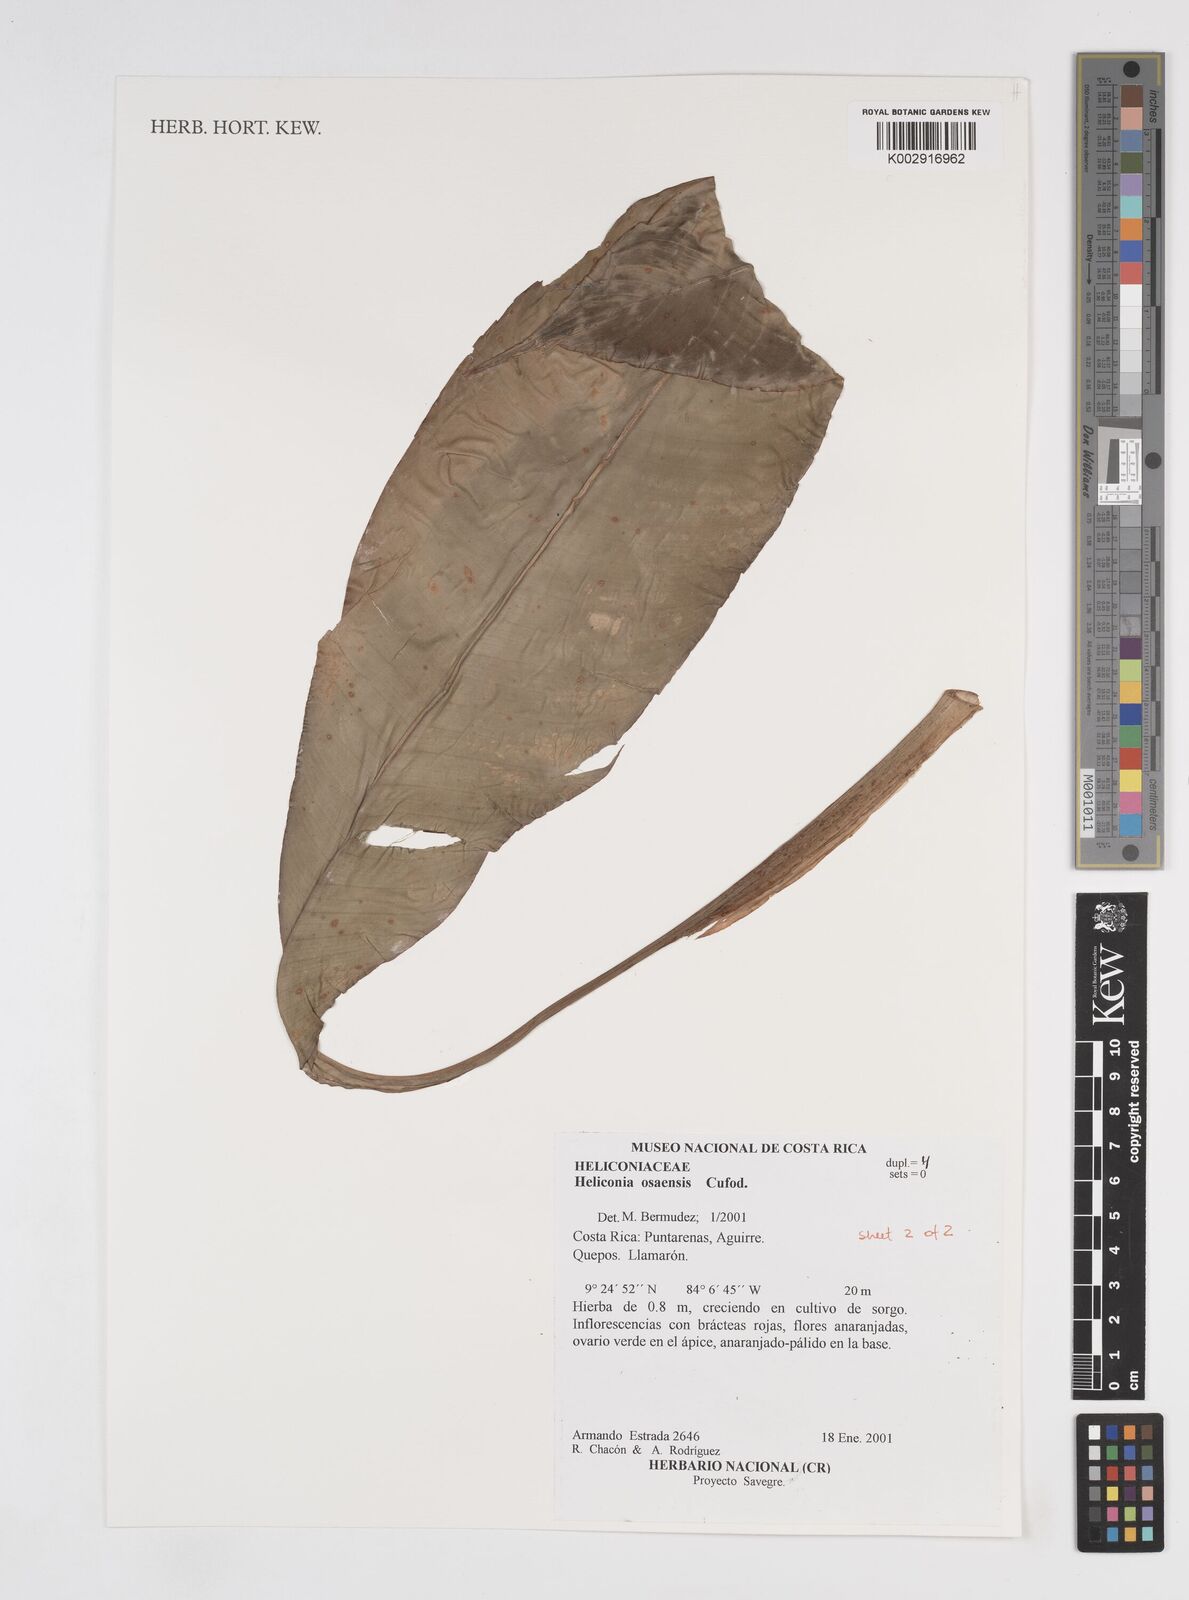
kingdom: Plantae
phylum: Tracheophyta
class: Liliopsida
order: Zingiberales
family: Heliconiaceae
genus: Heliconia
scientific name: Heliconia osaensis
